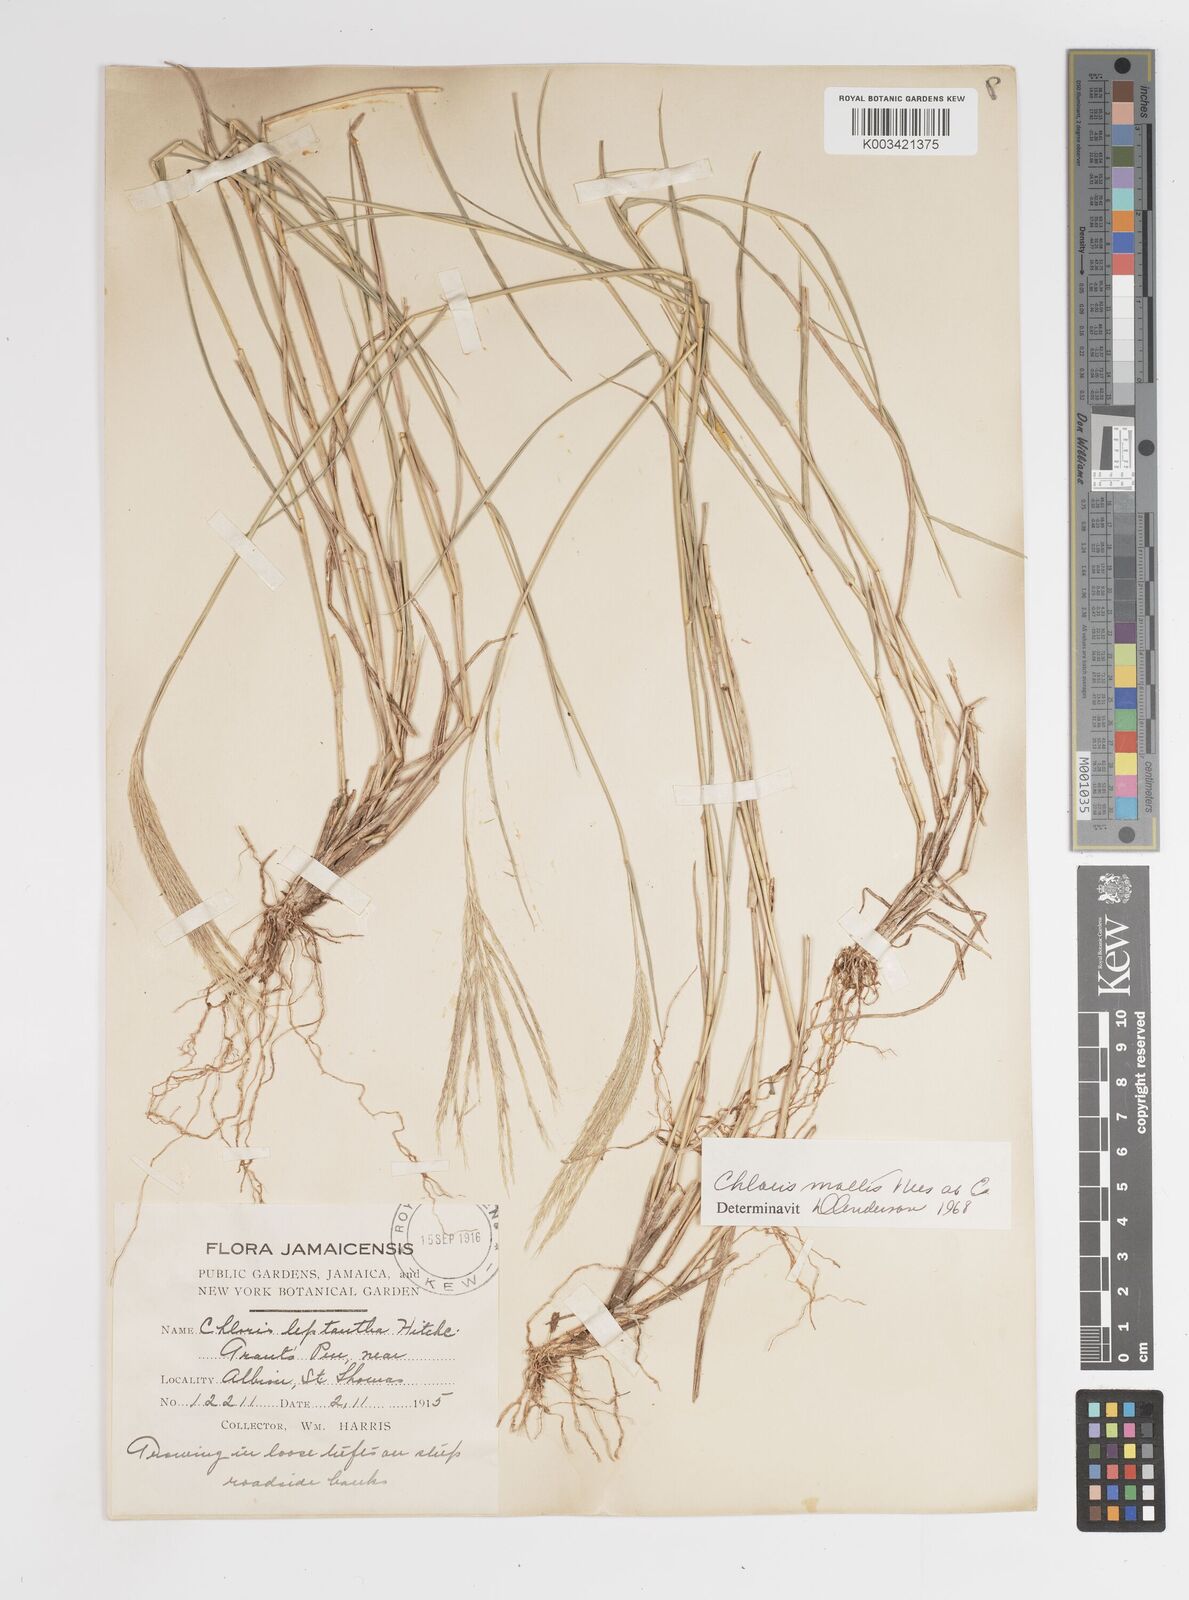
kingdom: Plantae
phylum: Tracheophyta
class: Liliopsida
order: Poales
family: Poaceae
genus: Leptochloa
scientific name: Leptochloa anisopoda
